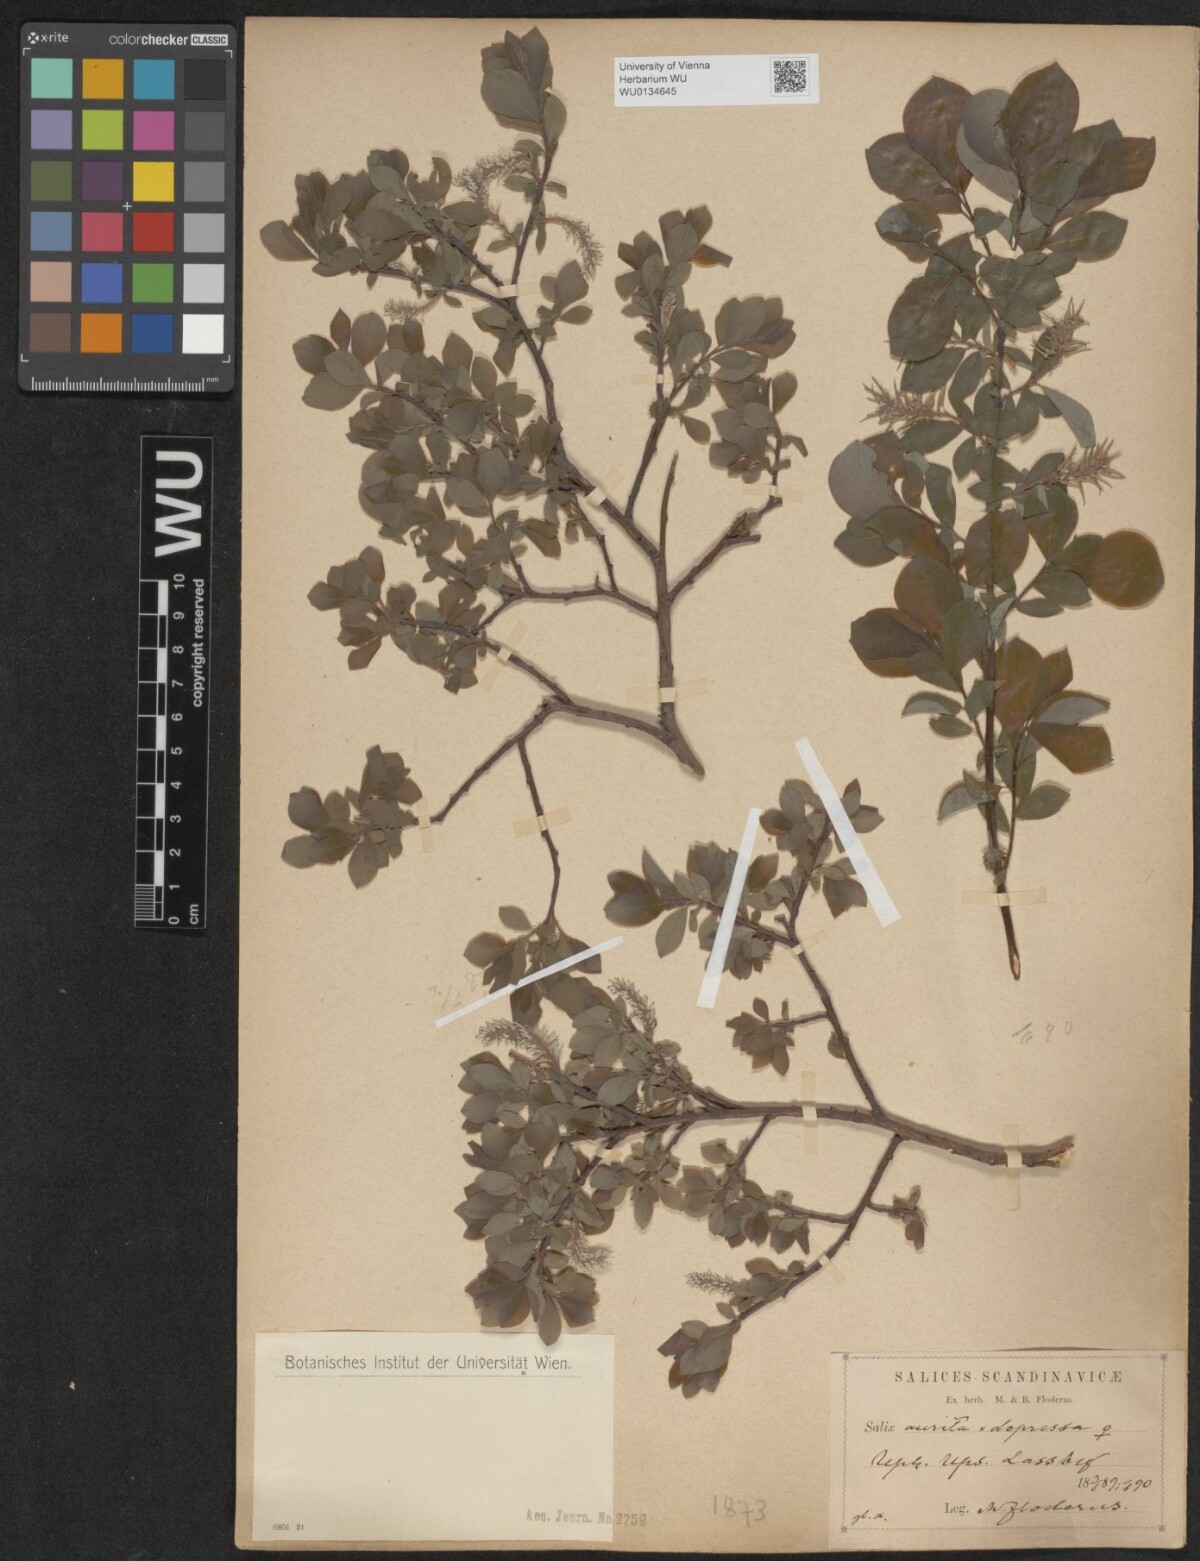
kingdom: Plantae
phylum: Tracheophyta
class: Magnoliopsida
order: Malpighiales
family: Salicaceae
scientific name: Salicaceae
